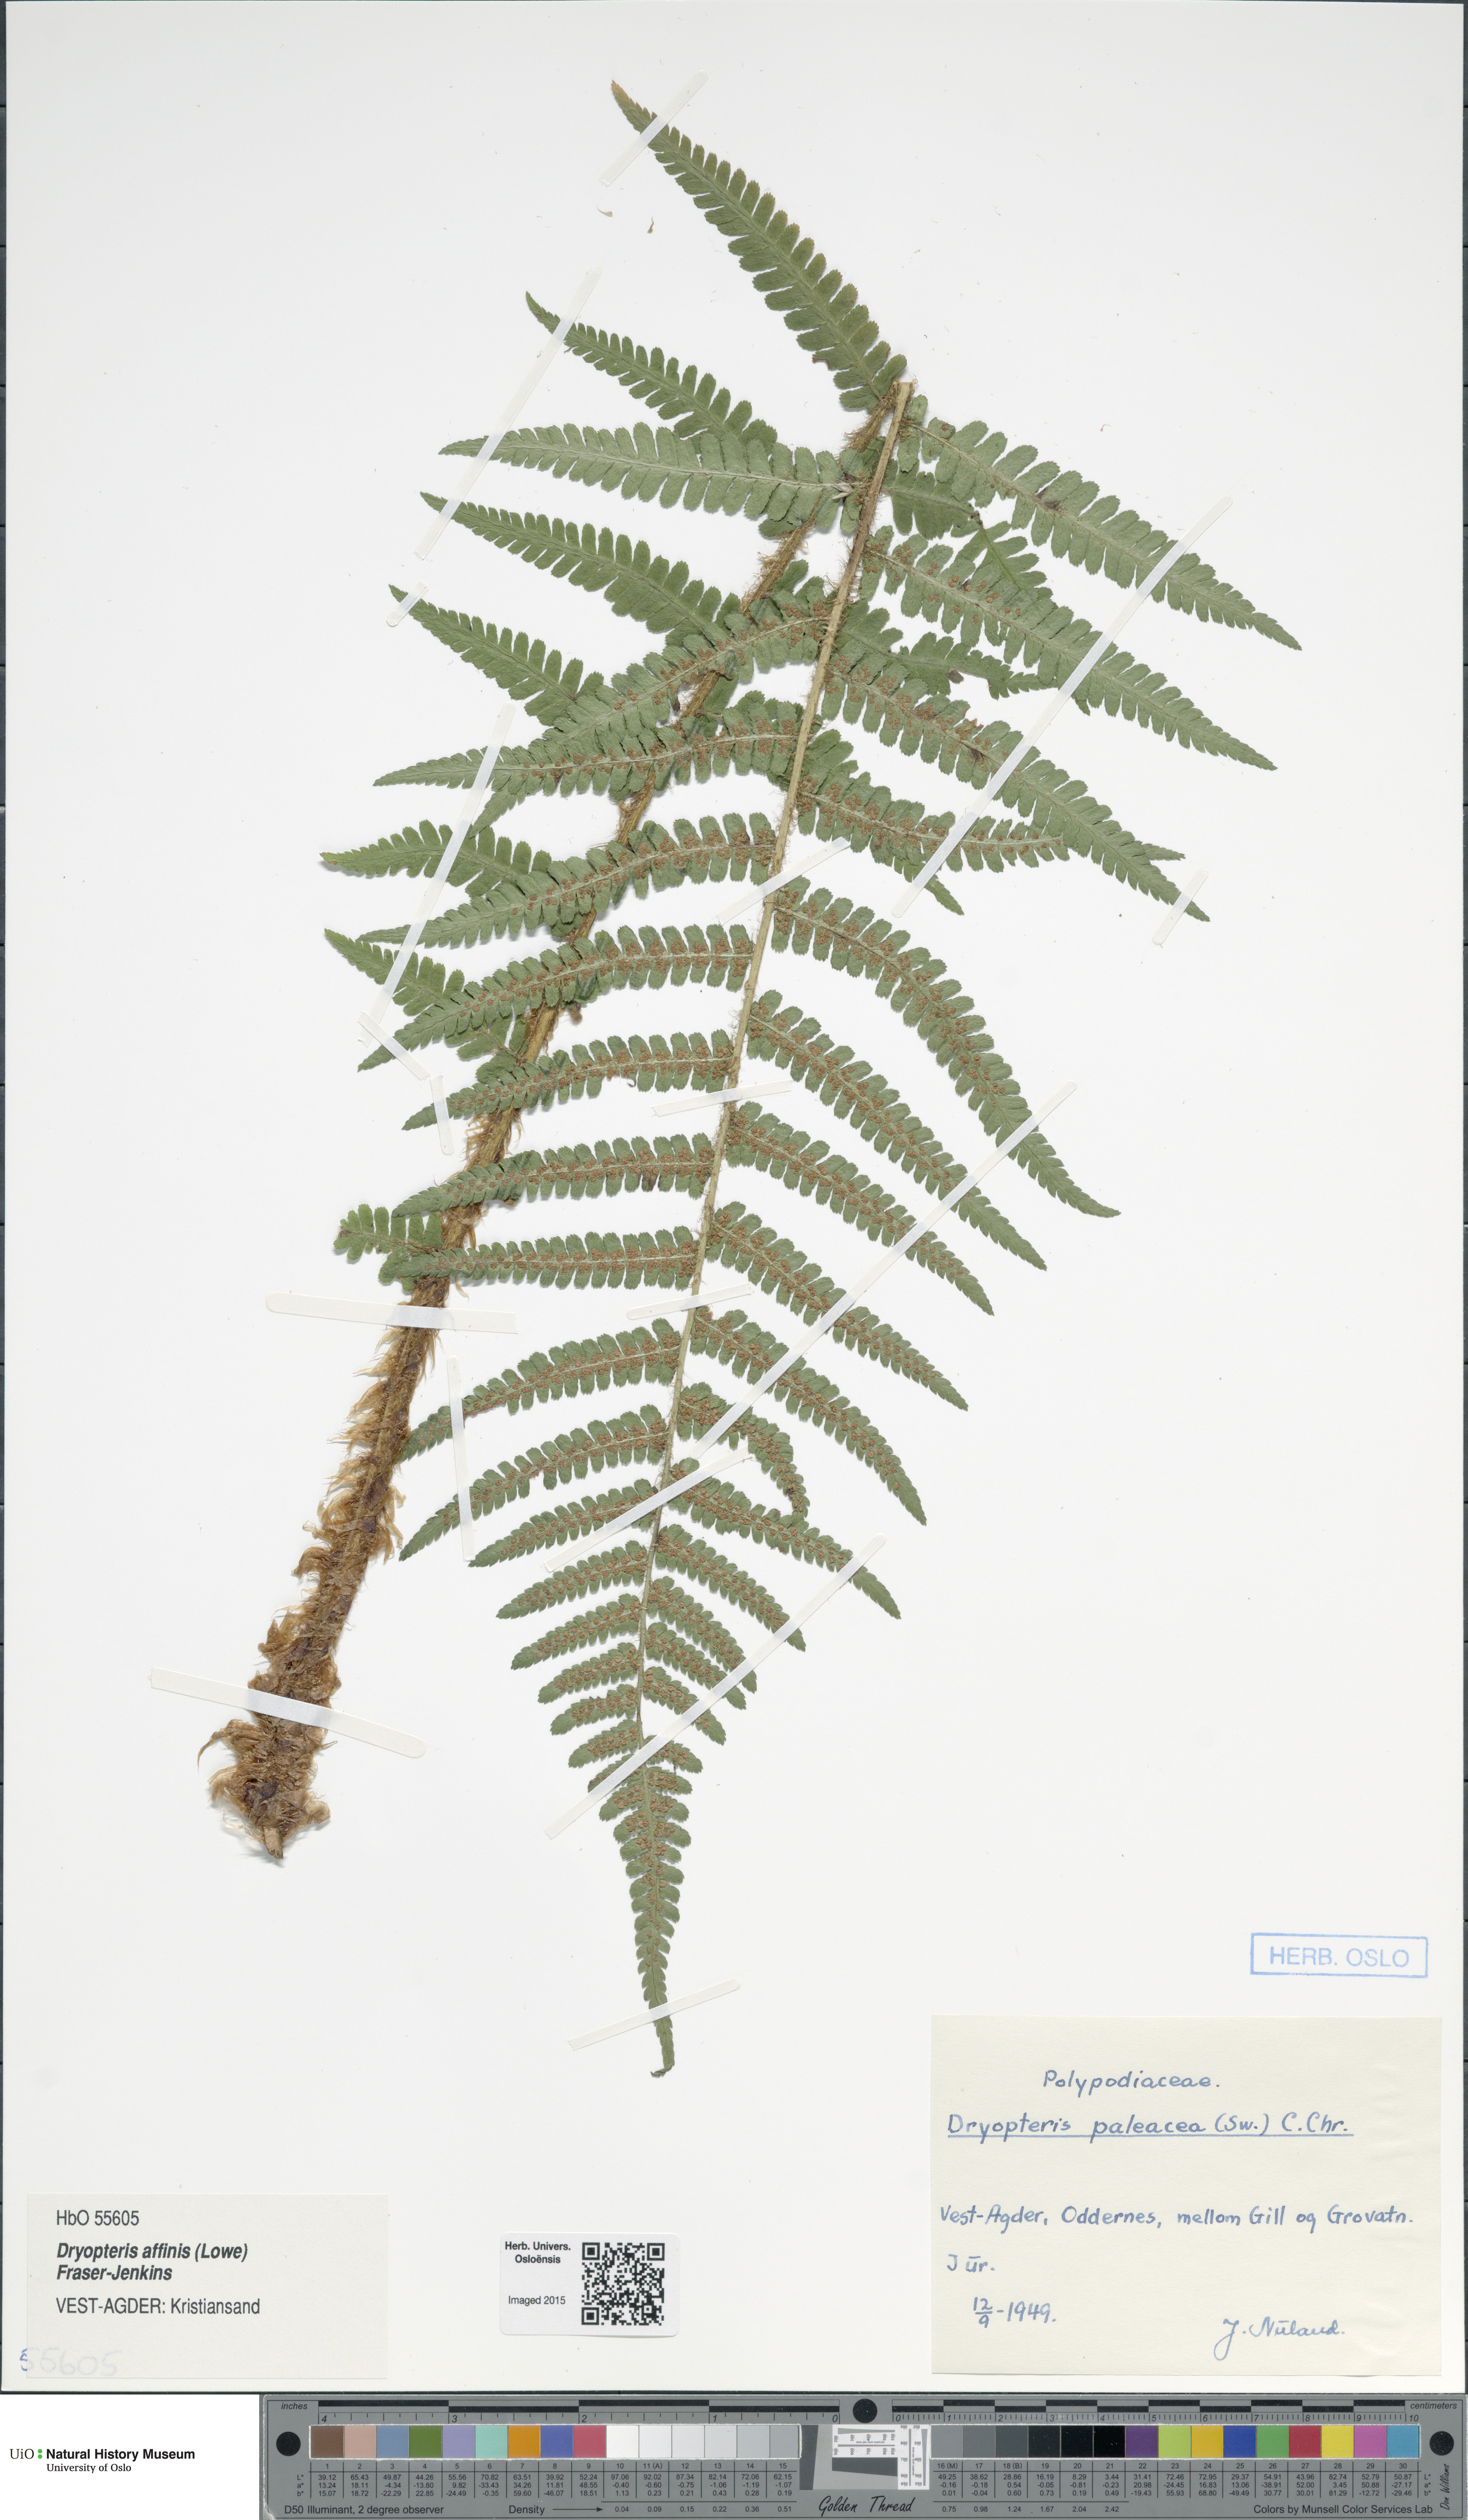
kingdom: Plantae
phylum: Tracheophyta
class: Polypodiopsida
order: Polypodiales
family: Dryopteridaceae
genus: Dryopteris
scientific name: Dryopteris wallichiana
